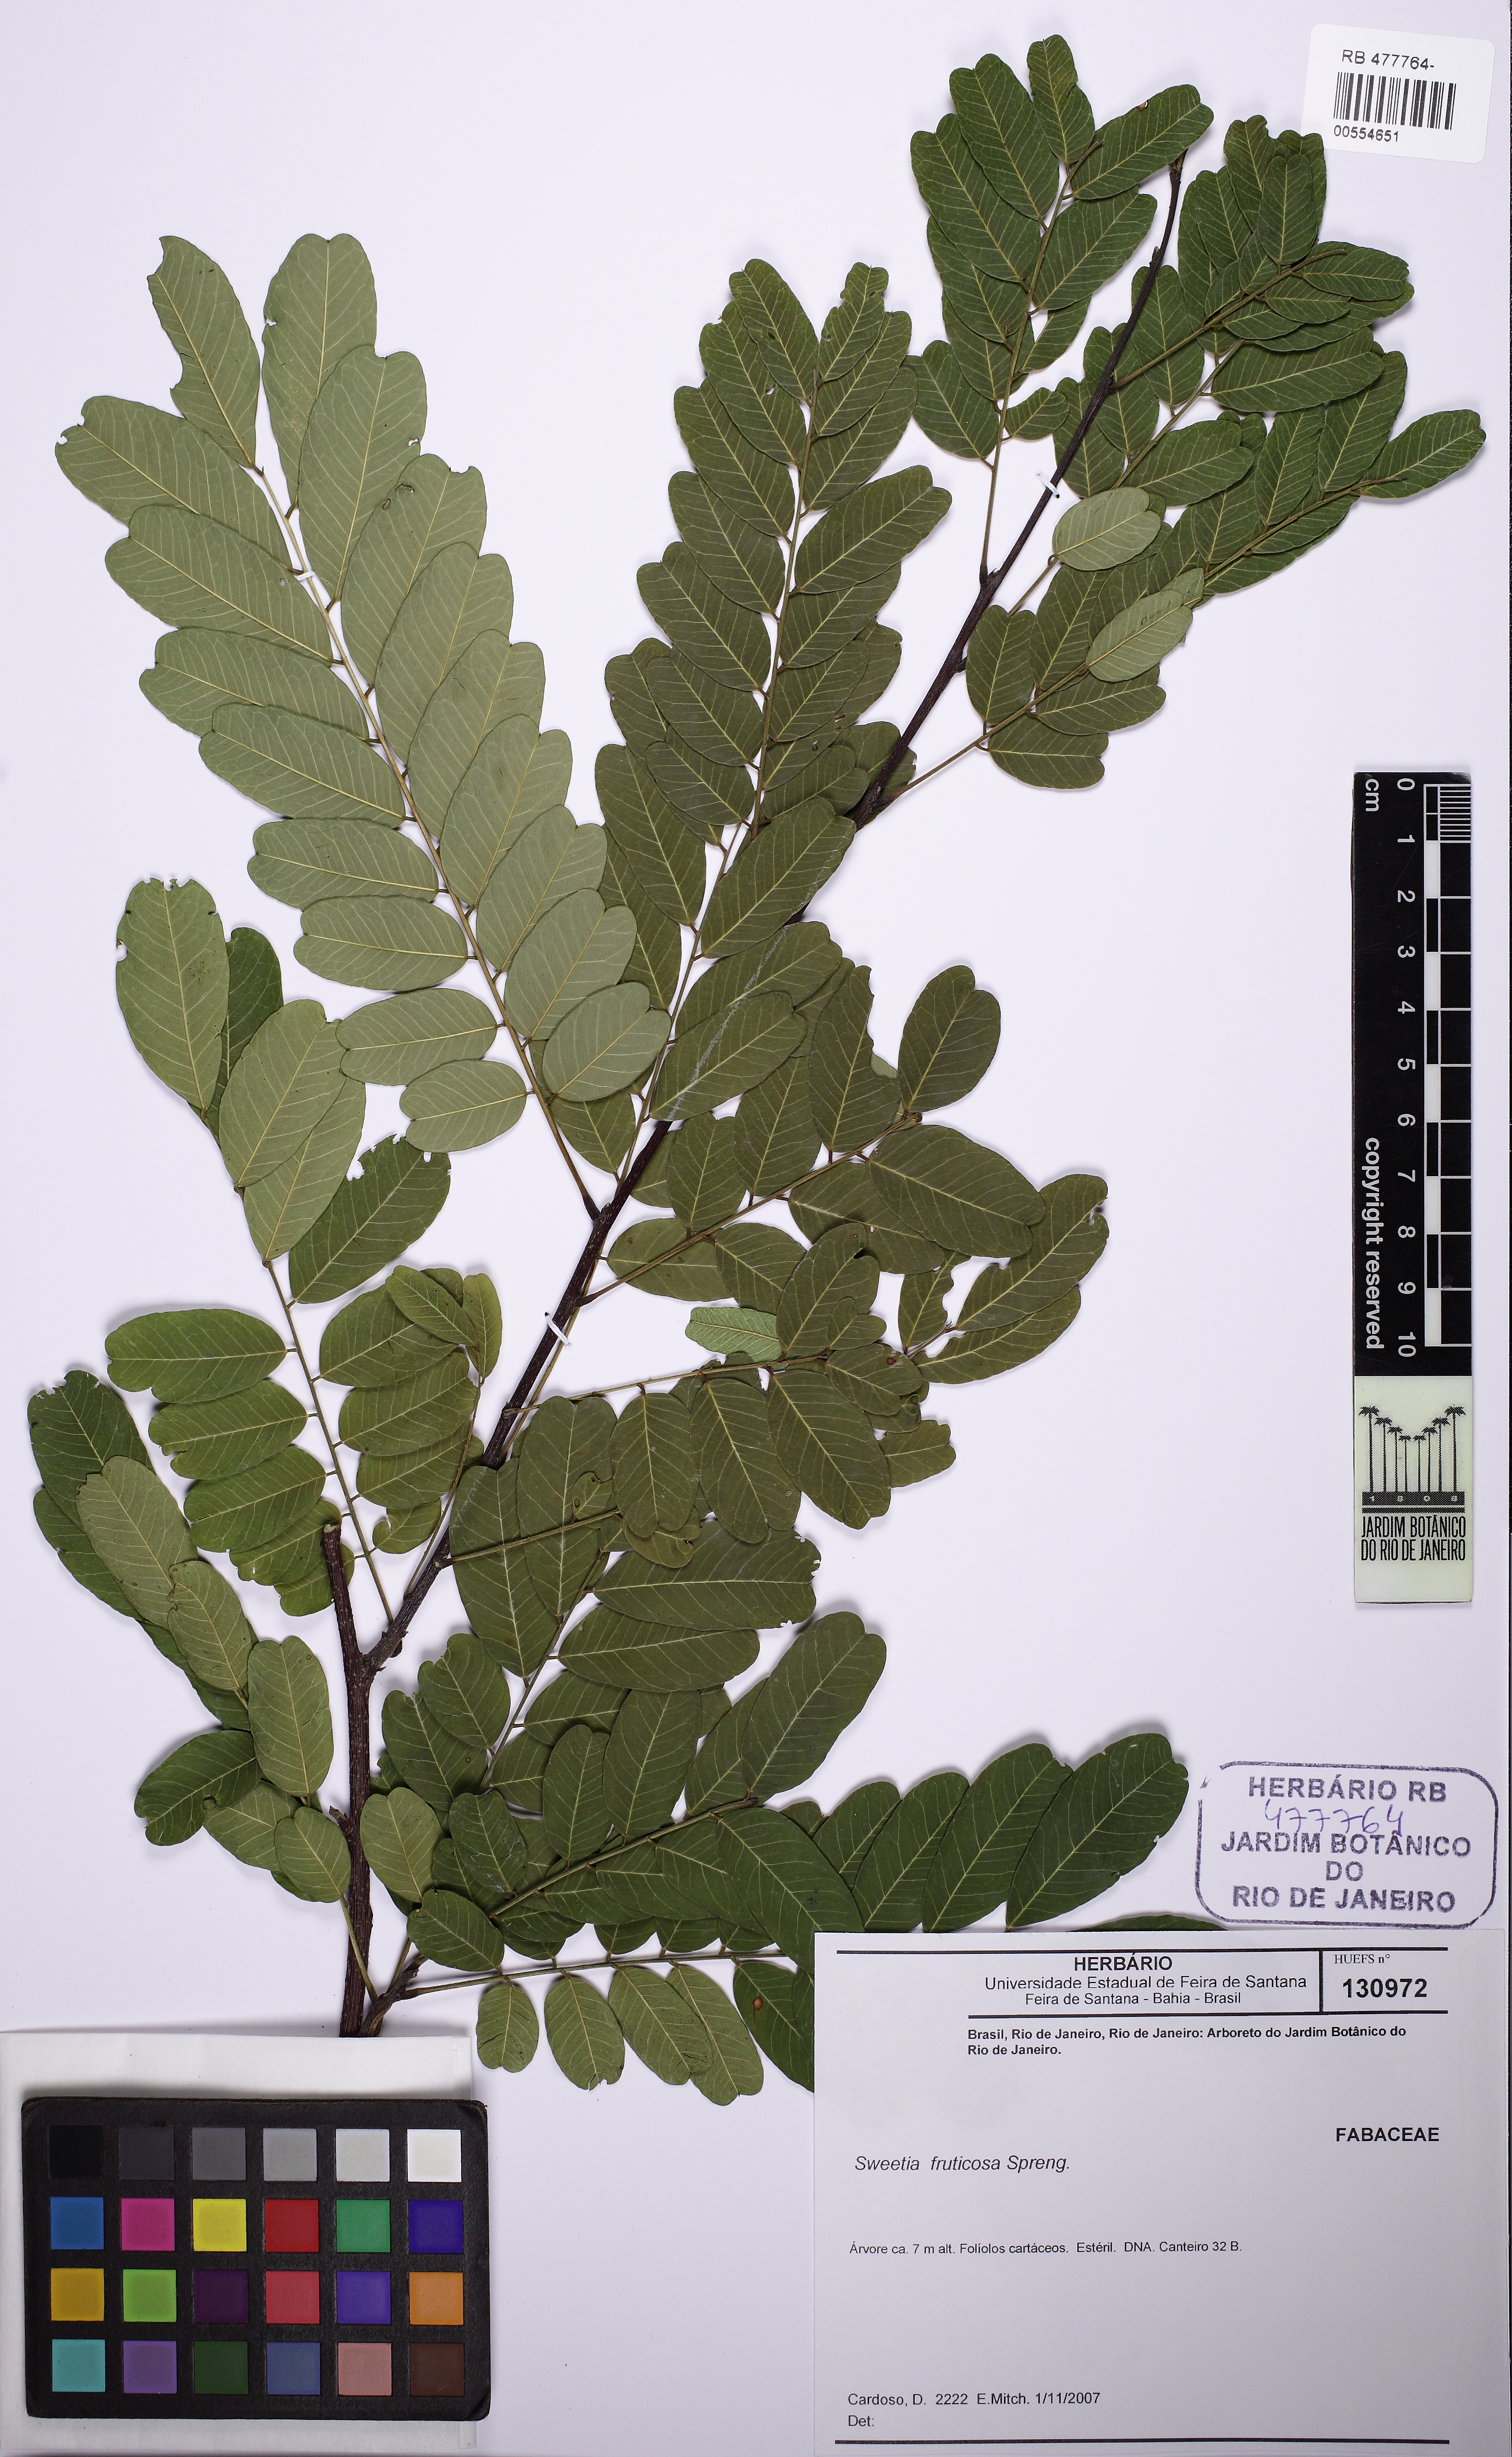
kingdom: Plantae
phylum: Tracheophyta
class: Magnoliopsida
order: Fabales
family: Fabaceae
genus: Sweetia
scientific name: Sweetia fruticosa
